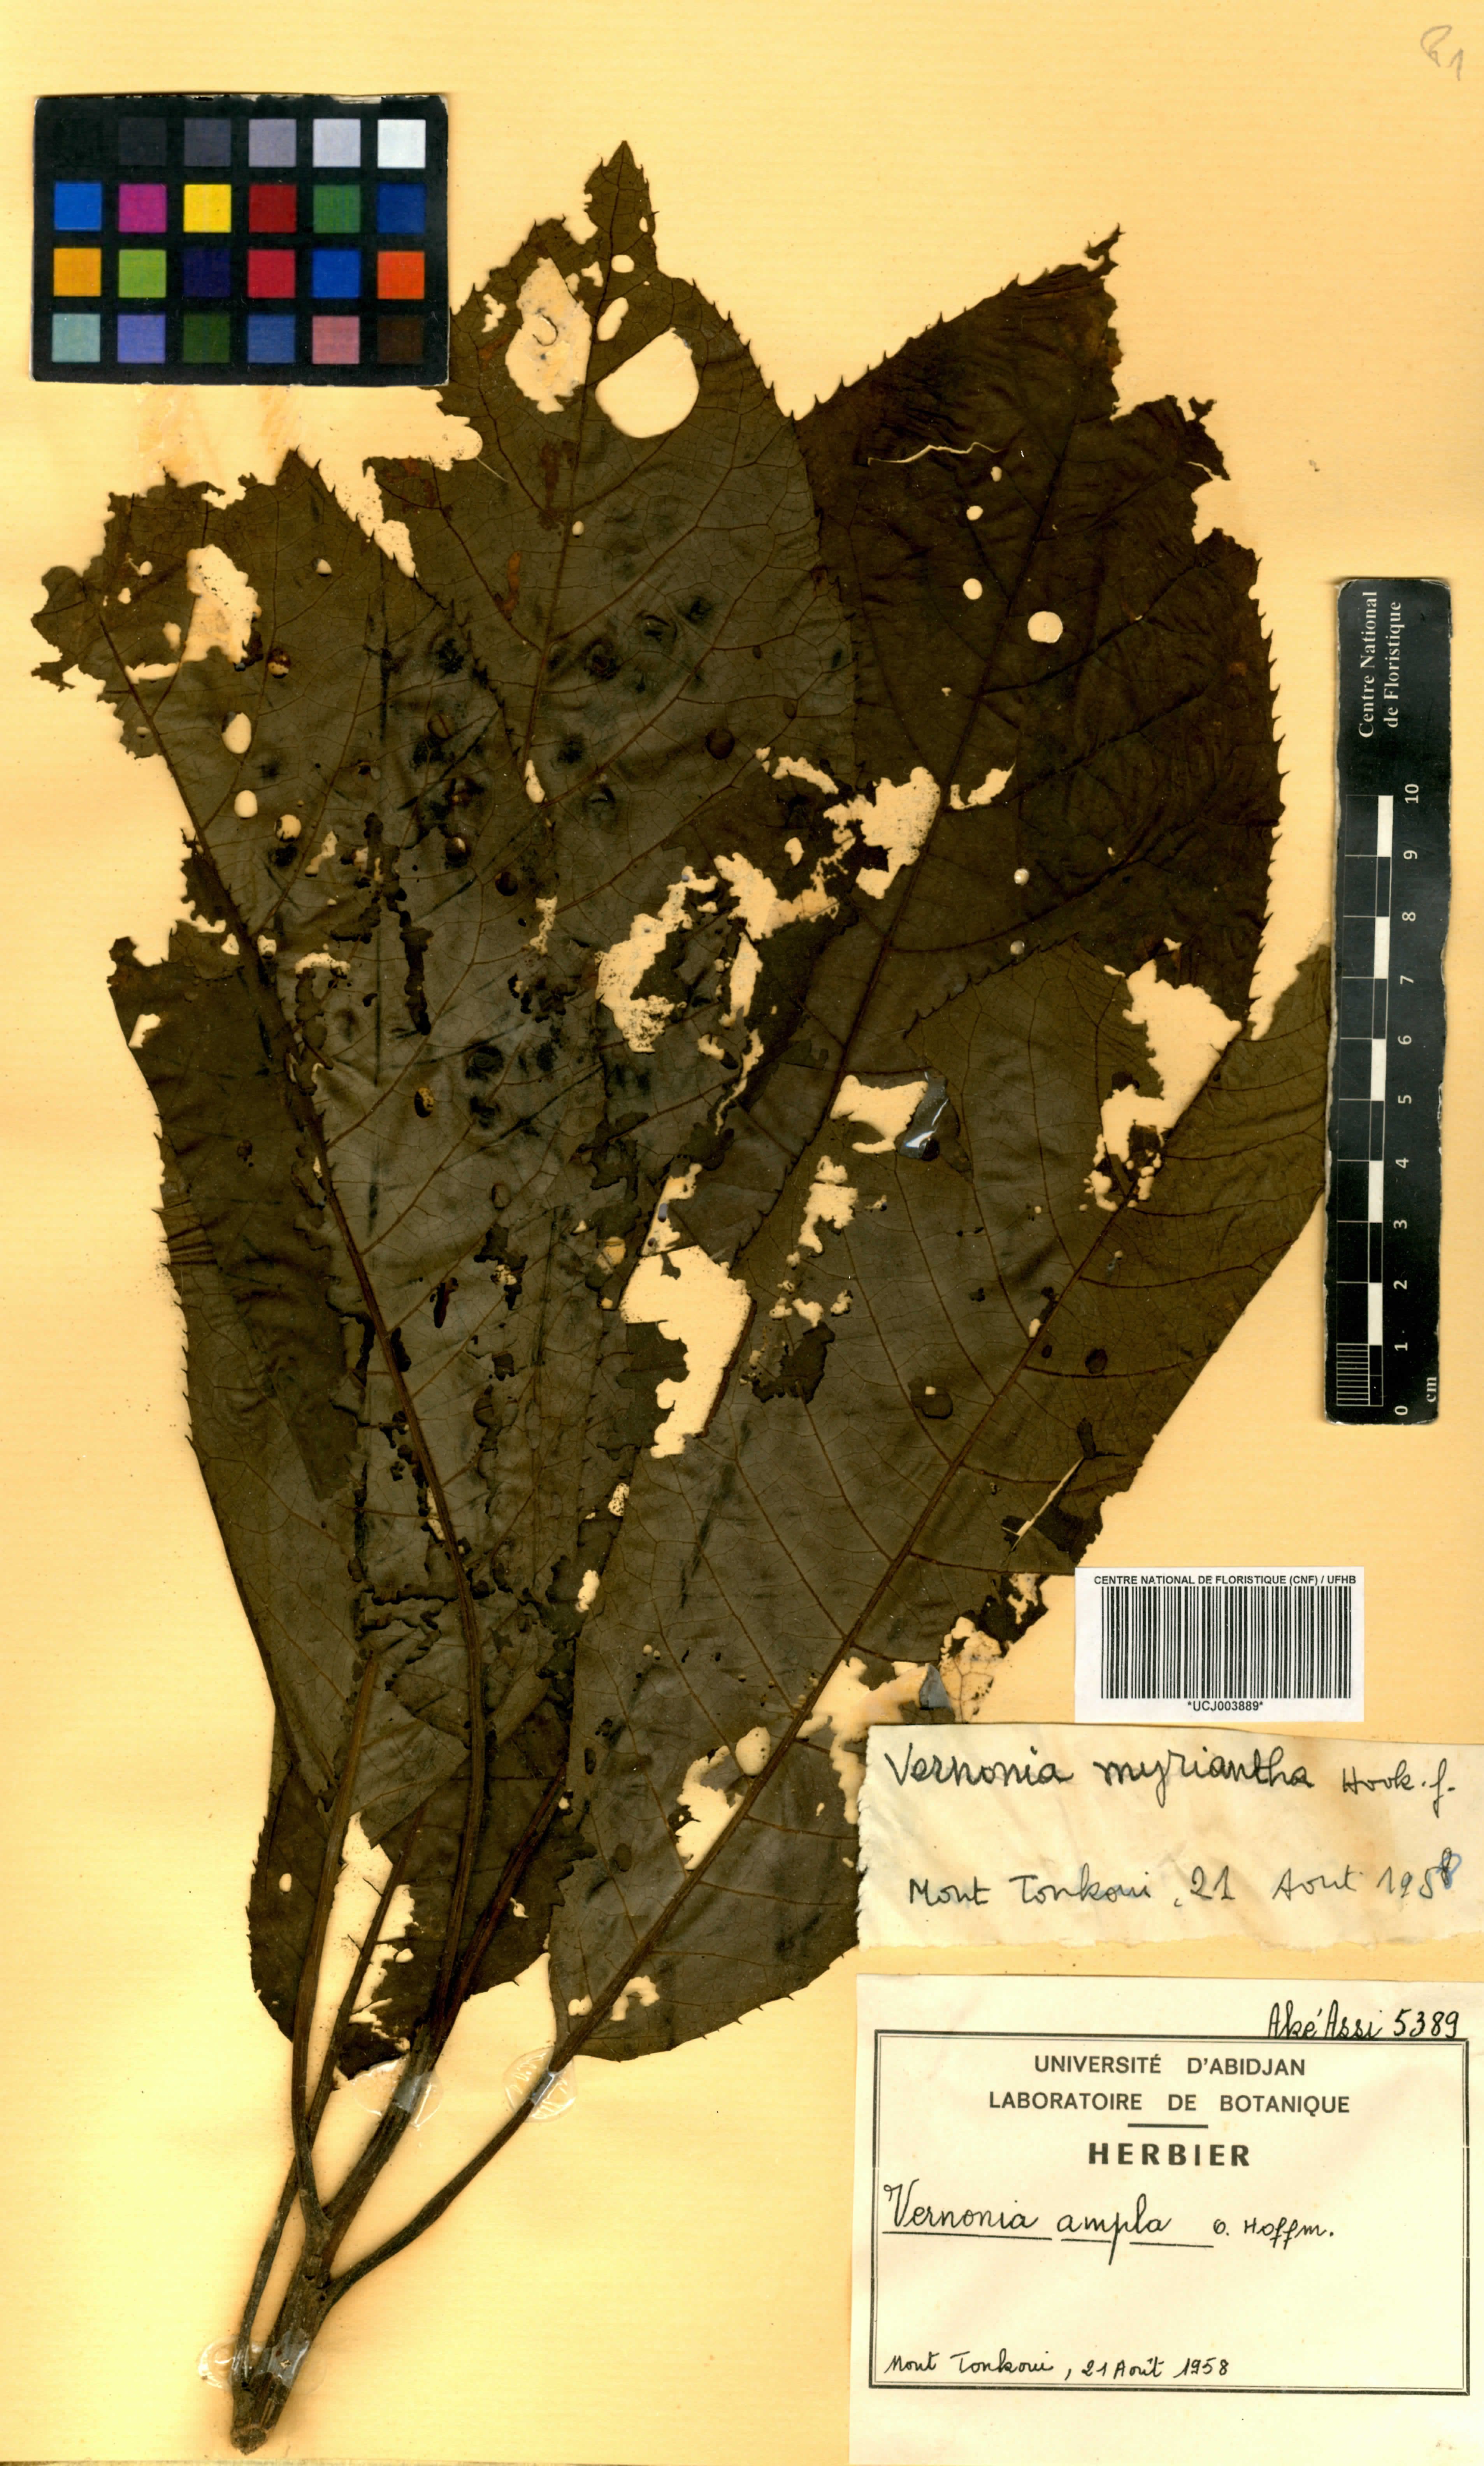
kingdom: Plantae
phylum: Tracheophyta
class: Magnoliopsida
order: Asterales
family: Asteraceae
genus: Gymnanthemum
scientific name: Gymnanthemum myrianthum
